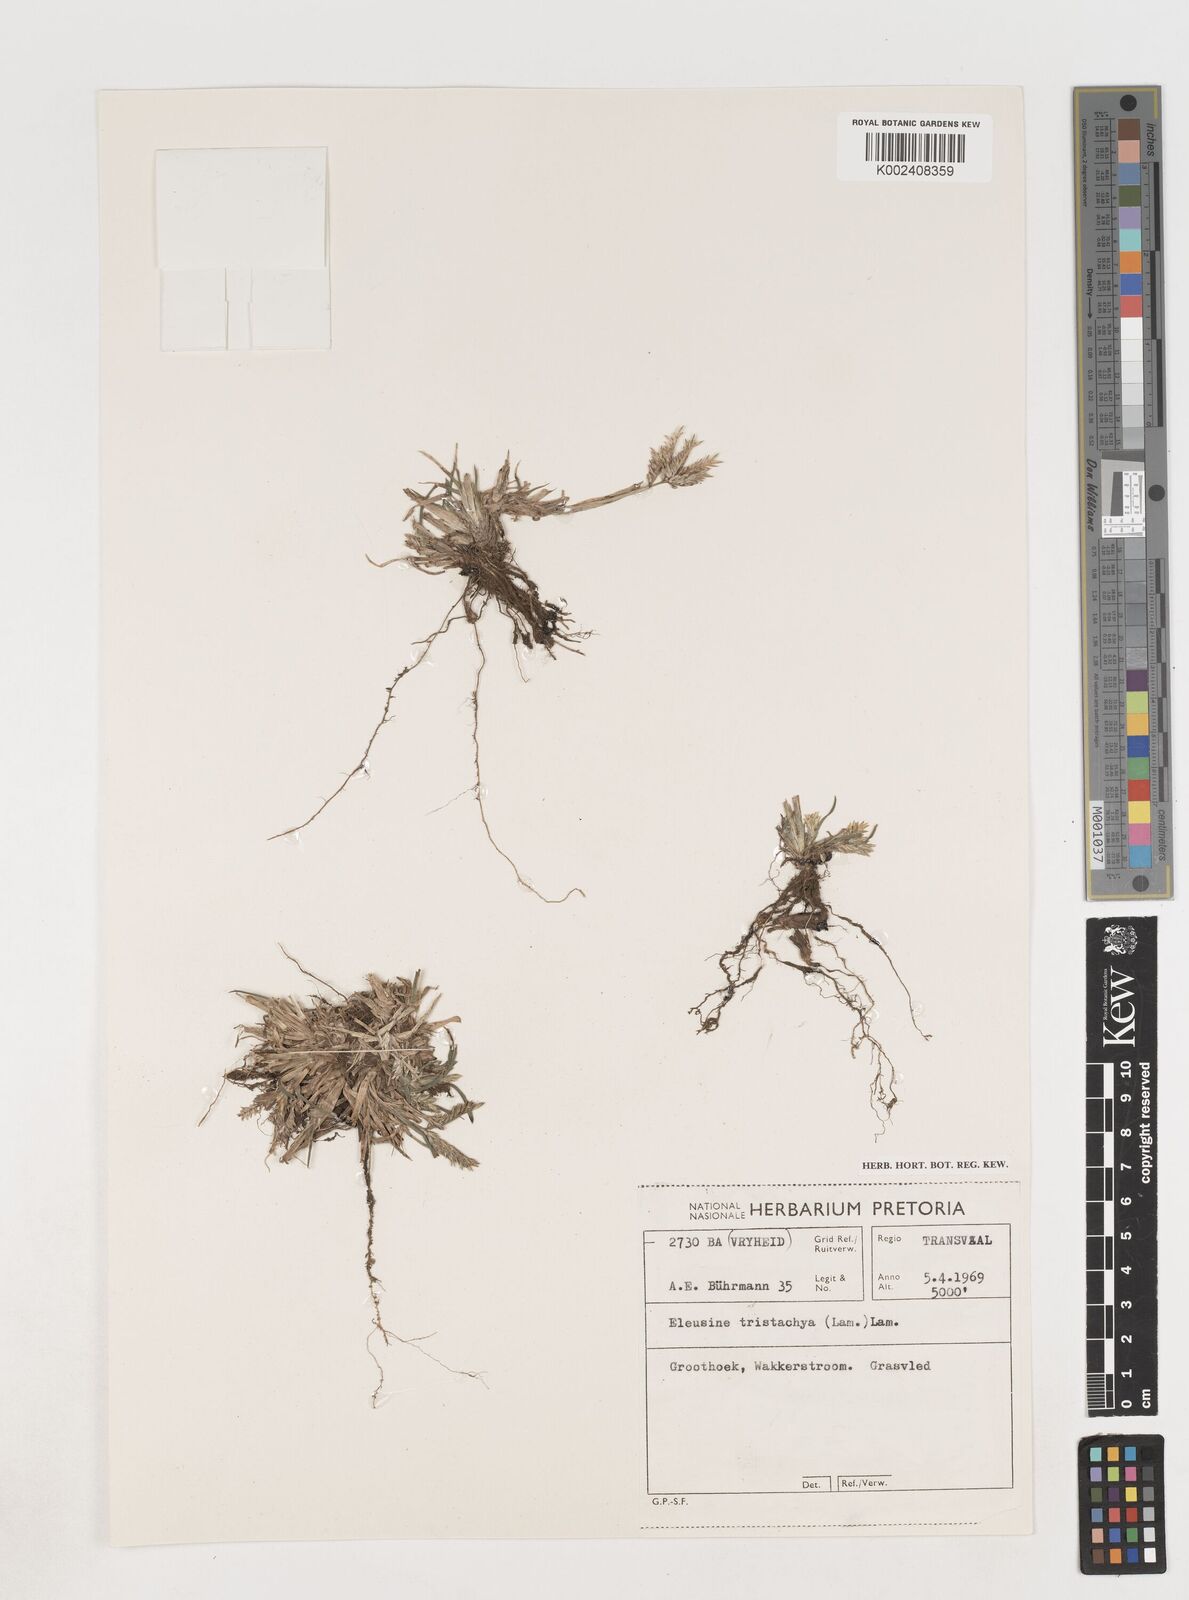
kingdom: Plantae
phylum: Tracheophyta
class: Liliopsida
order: Poales
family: Poaceae
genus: Eleusine
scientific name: Eleusine tristachya
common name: American yard-grass
